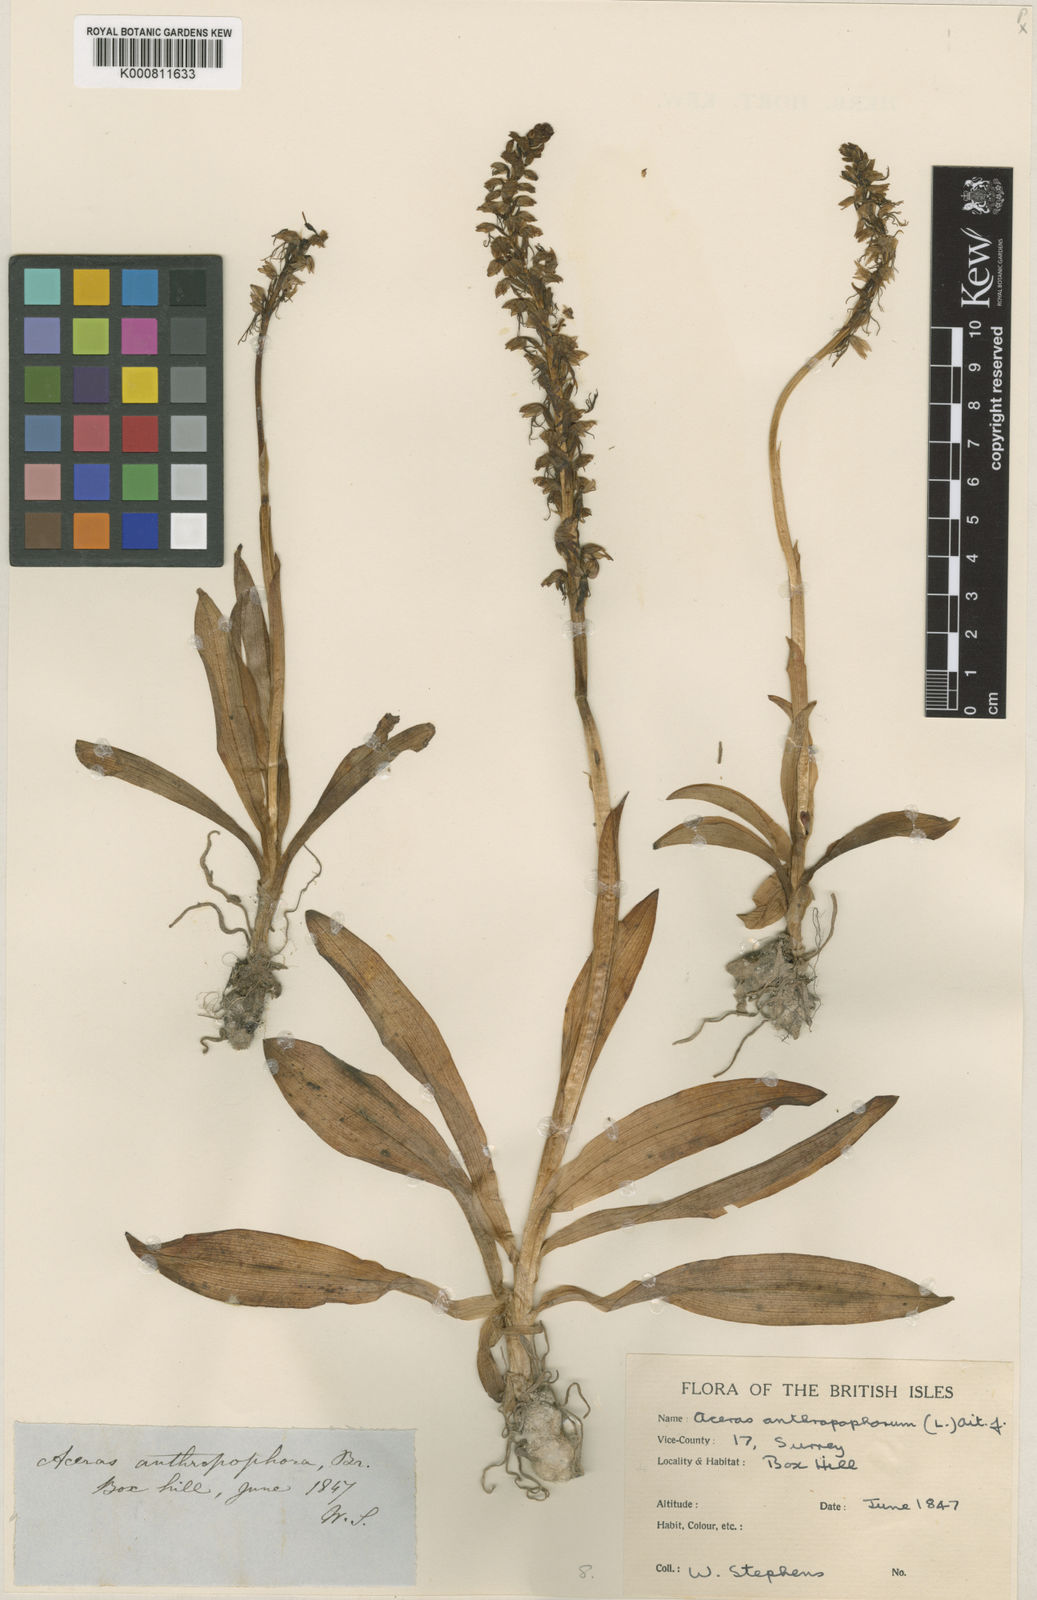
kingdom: Plantae
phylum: Tracheophyta
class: Liliopsida
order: Asparagales
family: Orchidaceae
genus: Orchis
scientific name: Orchis
